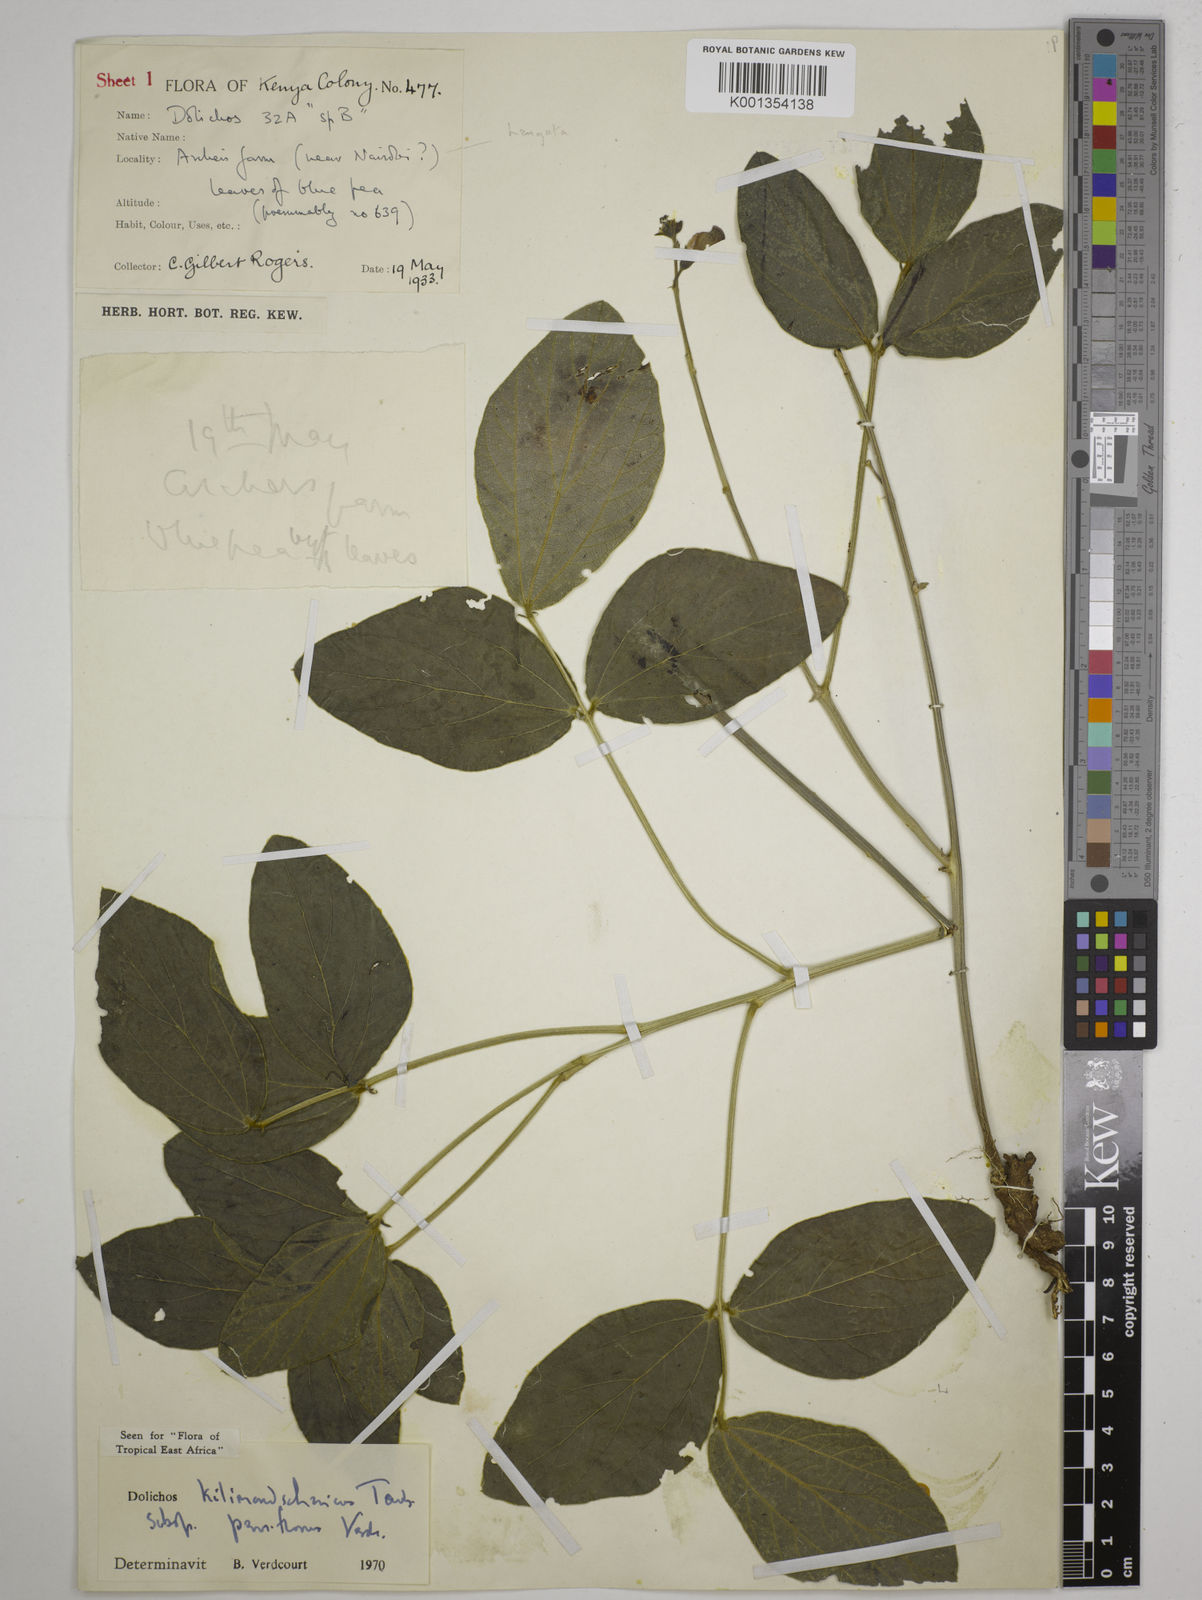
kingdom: Plantae
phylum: Tracheophyta
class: Magnoliopsida
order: Fabales
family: Fabaceae
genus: Dolichos
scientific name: Dolichos
